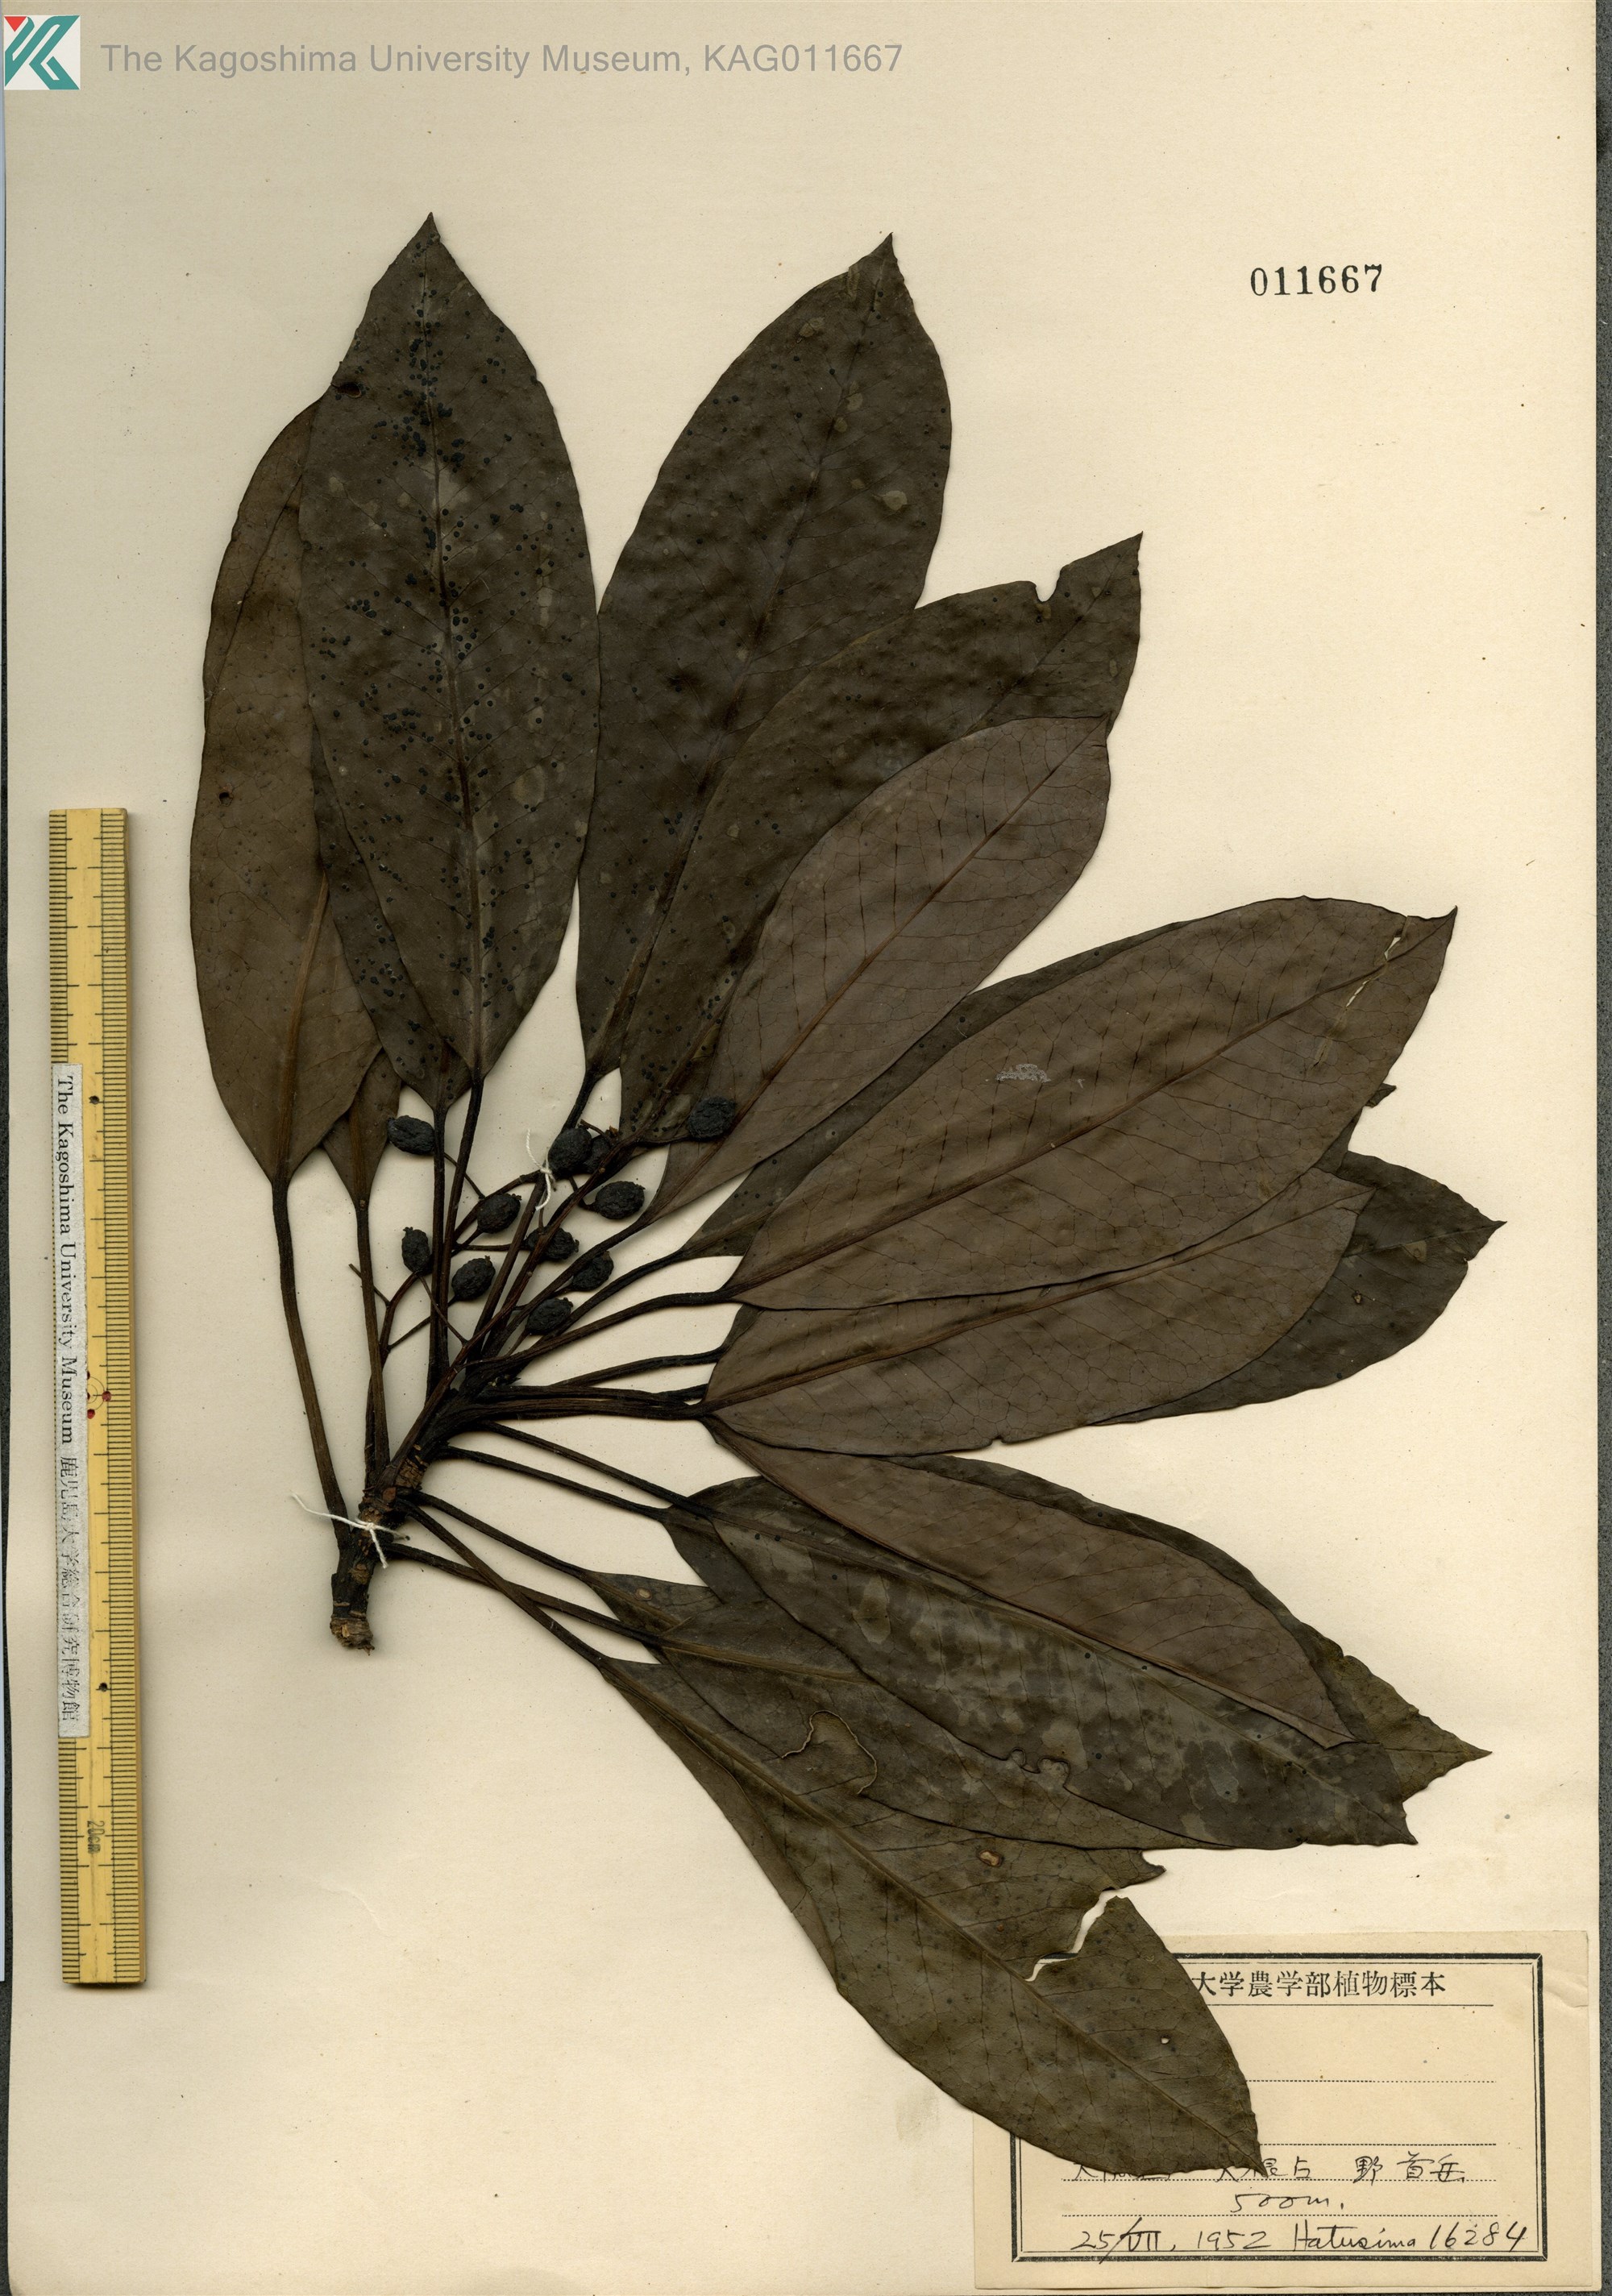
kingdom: Plantae
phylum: Tracheophyta
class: Magnoliopsida
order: Saxifragales
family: Daphniphyllaceae
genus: Daphniphyllum
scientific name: Daphniphyllum macropodum
